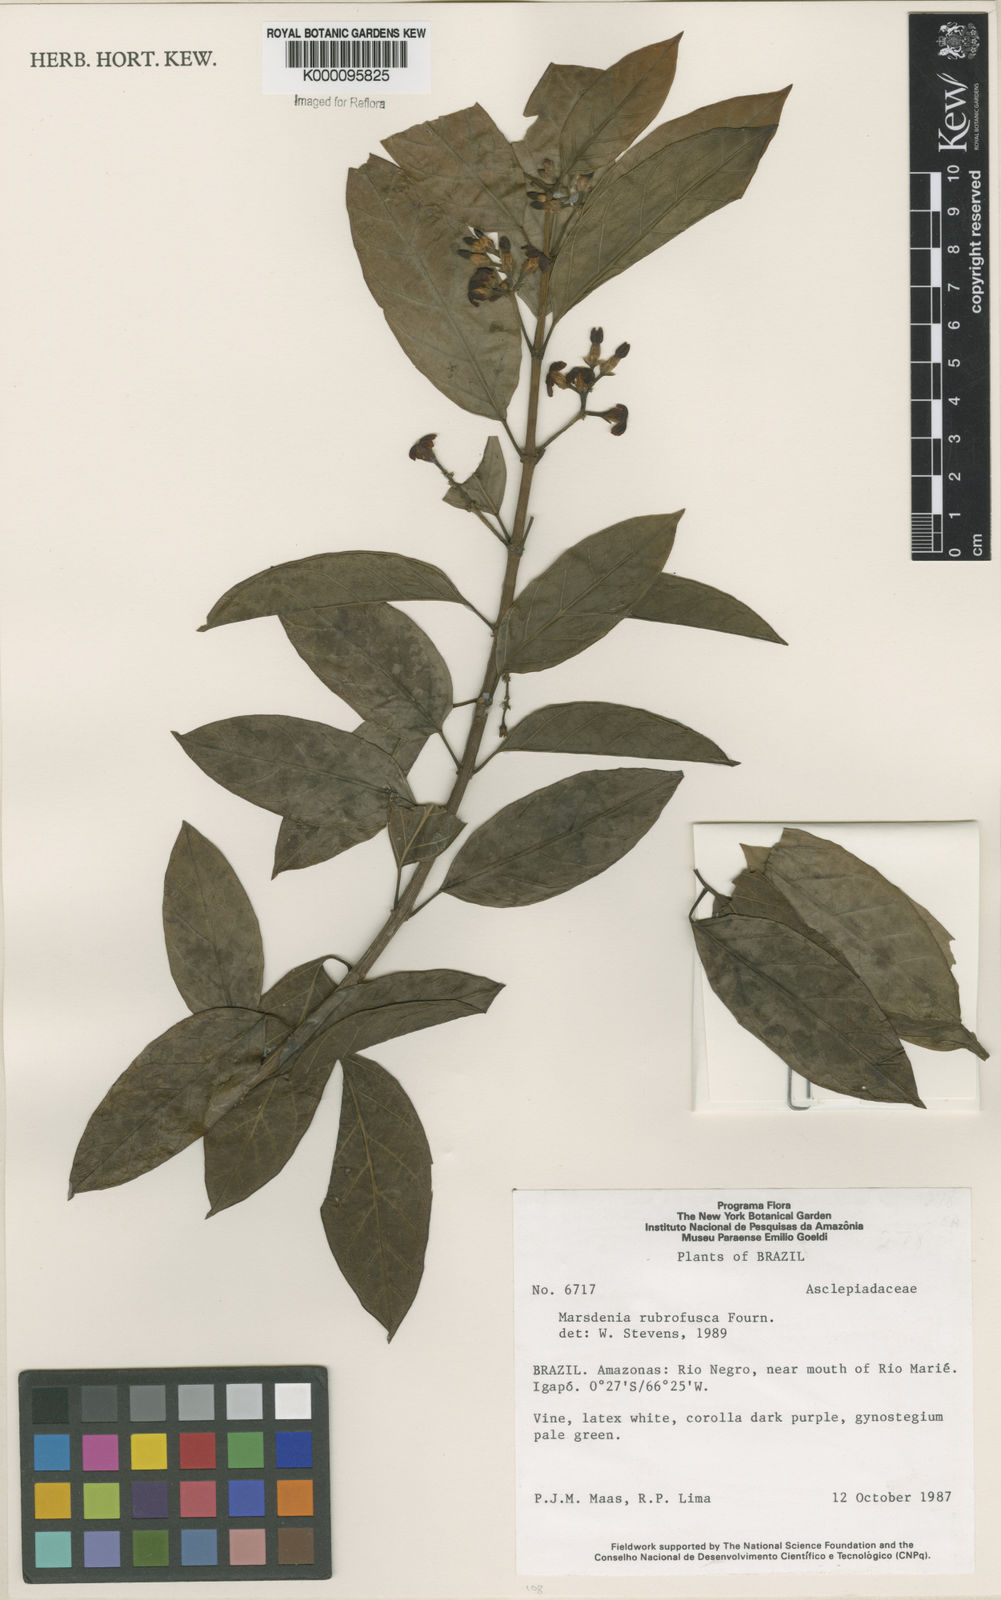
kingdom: Plantae
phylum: Tracheophyta
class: Magnoliopsida
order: Gentianales
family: Apocynaceae
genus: Ruehssia
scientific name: Ruehssia rubrofusca
